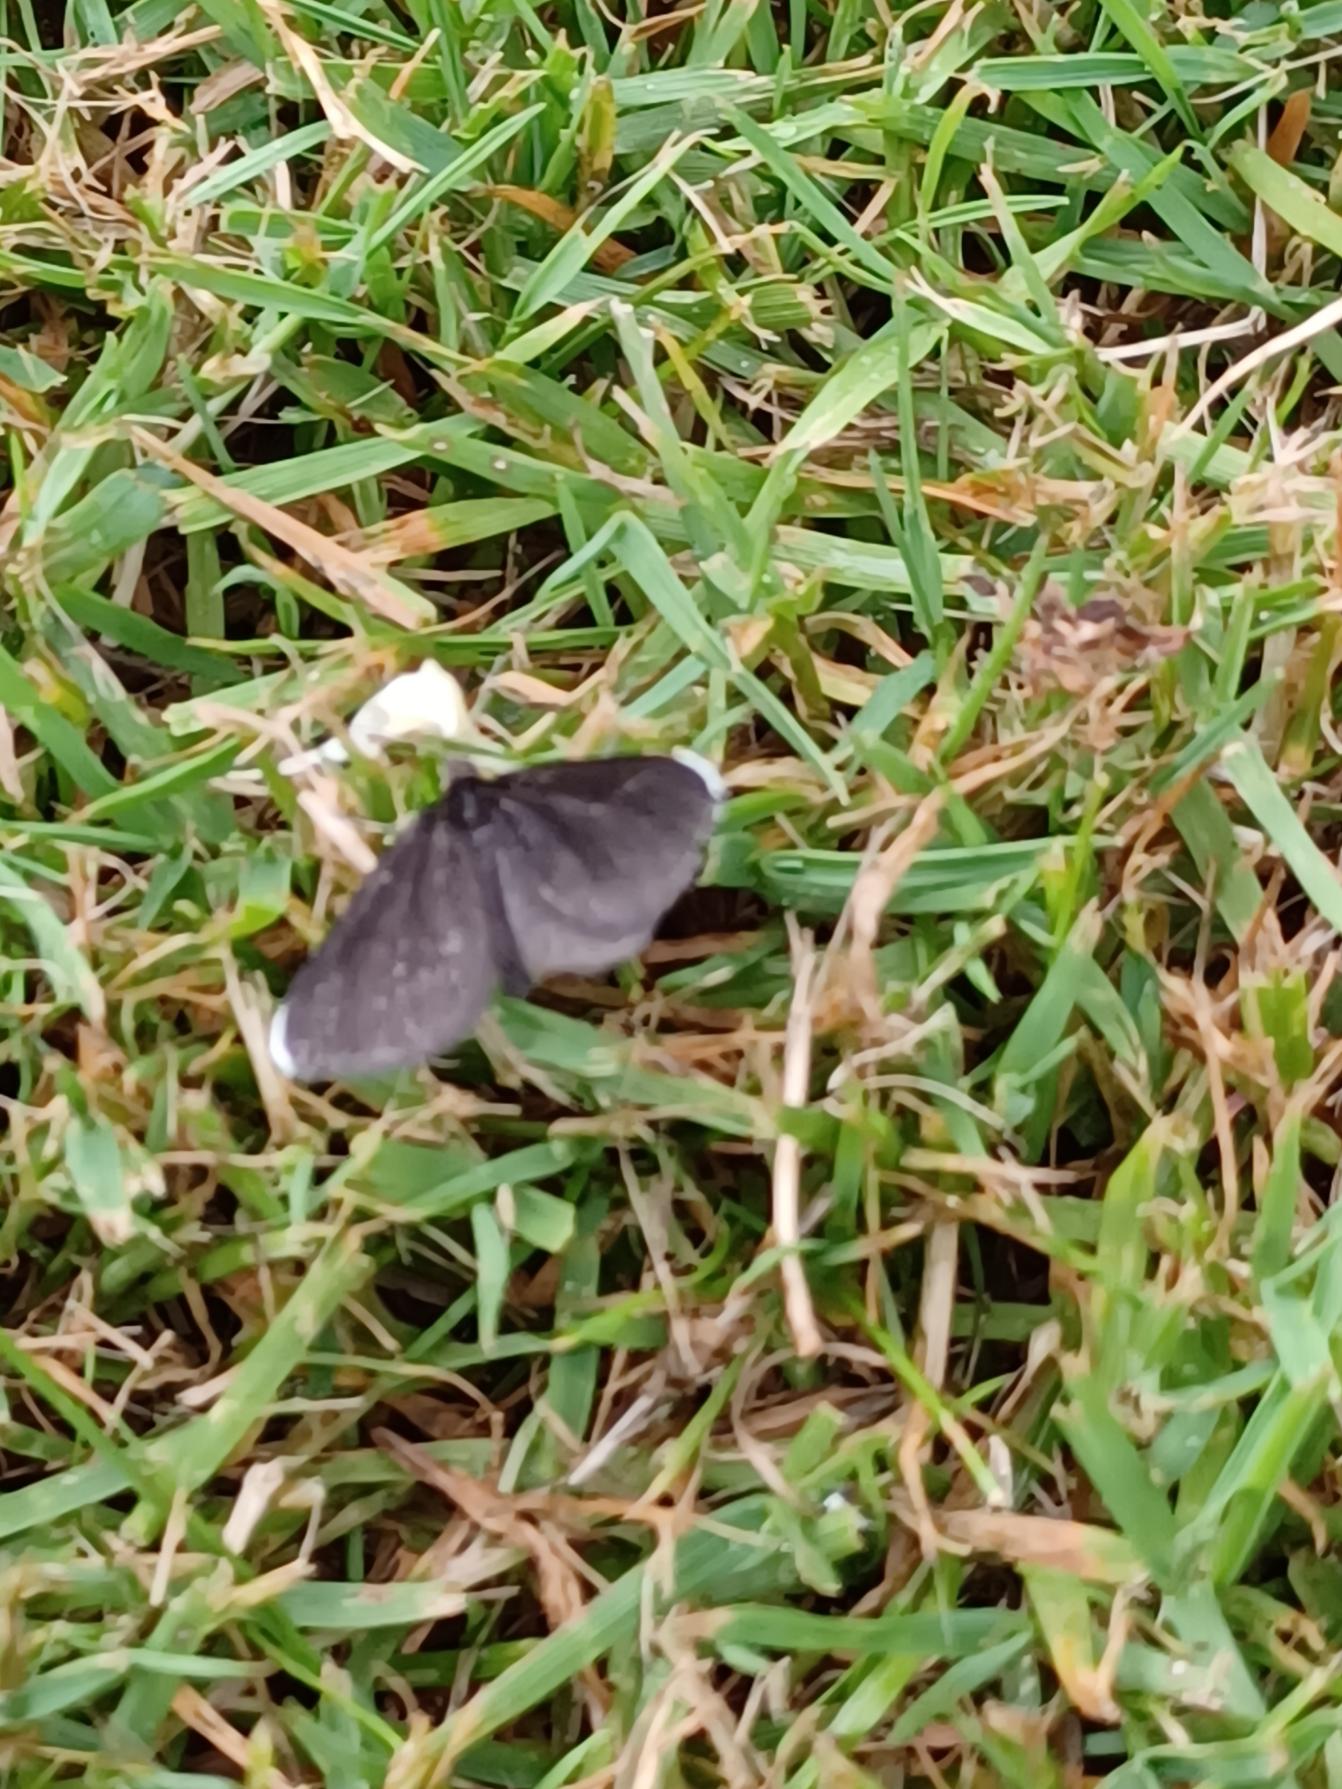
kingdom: Animalia
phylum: Arthropoda
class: Insecta
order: Lepidoptera
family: Geometridae
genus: Odezia
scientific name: Odezia atrata
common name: Sort måler
